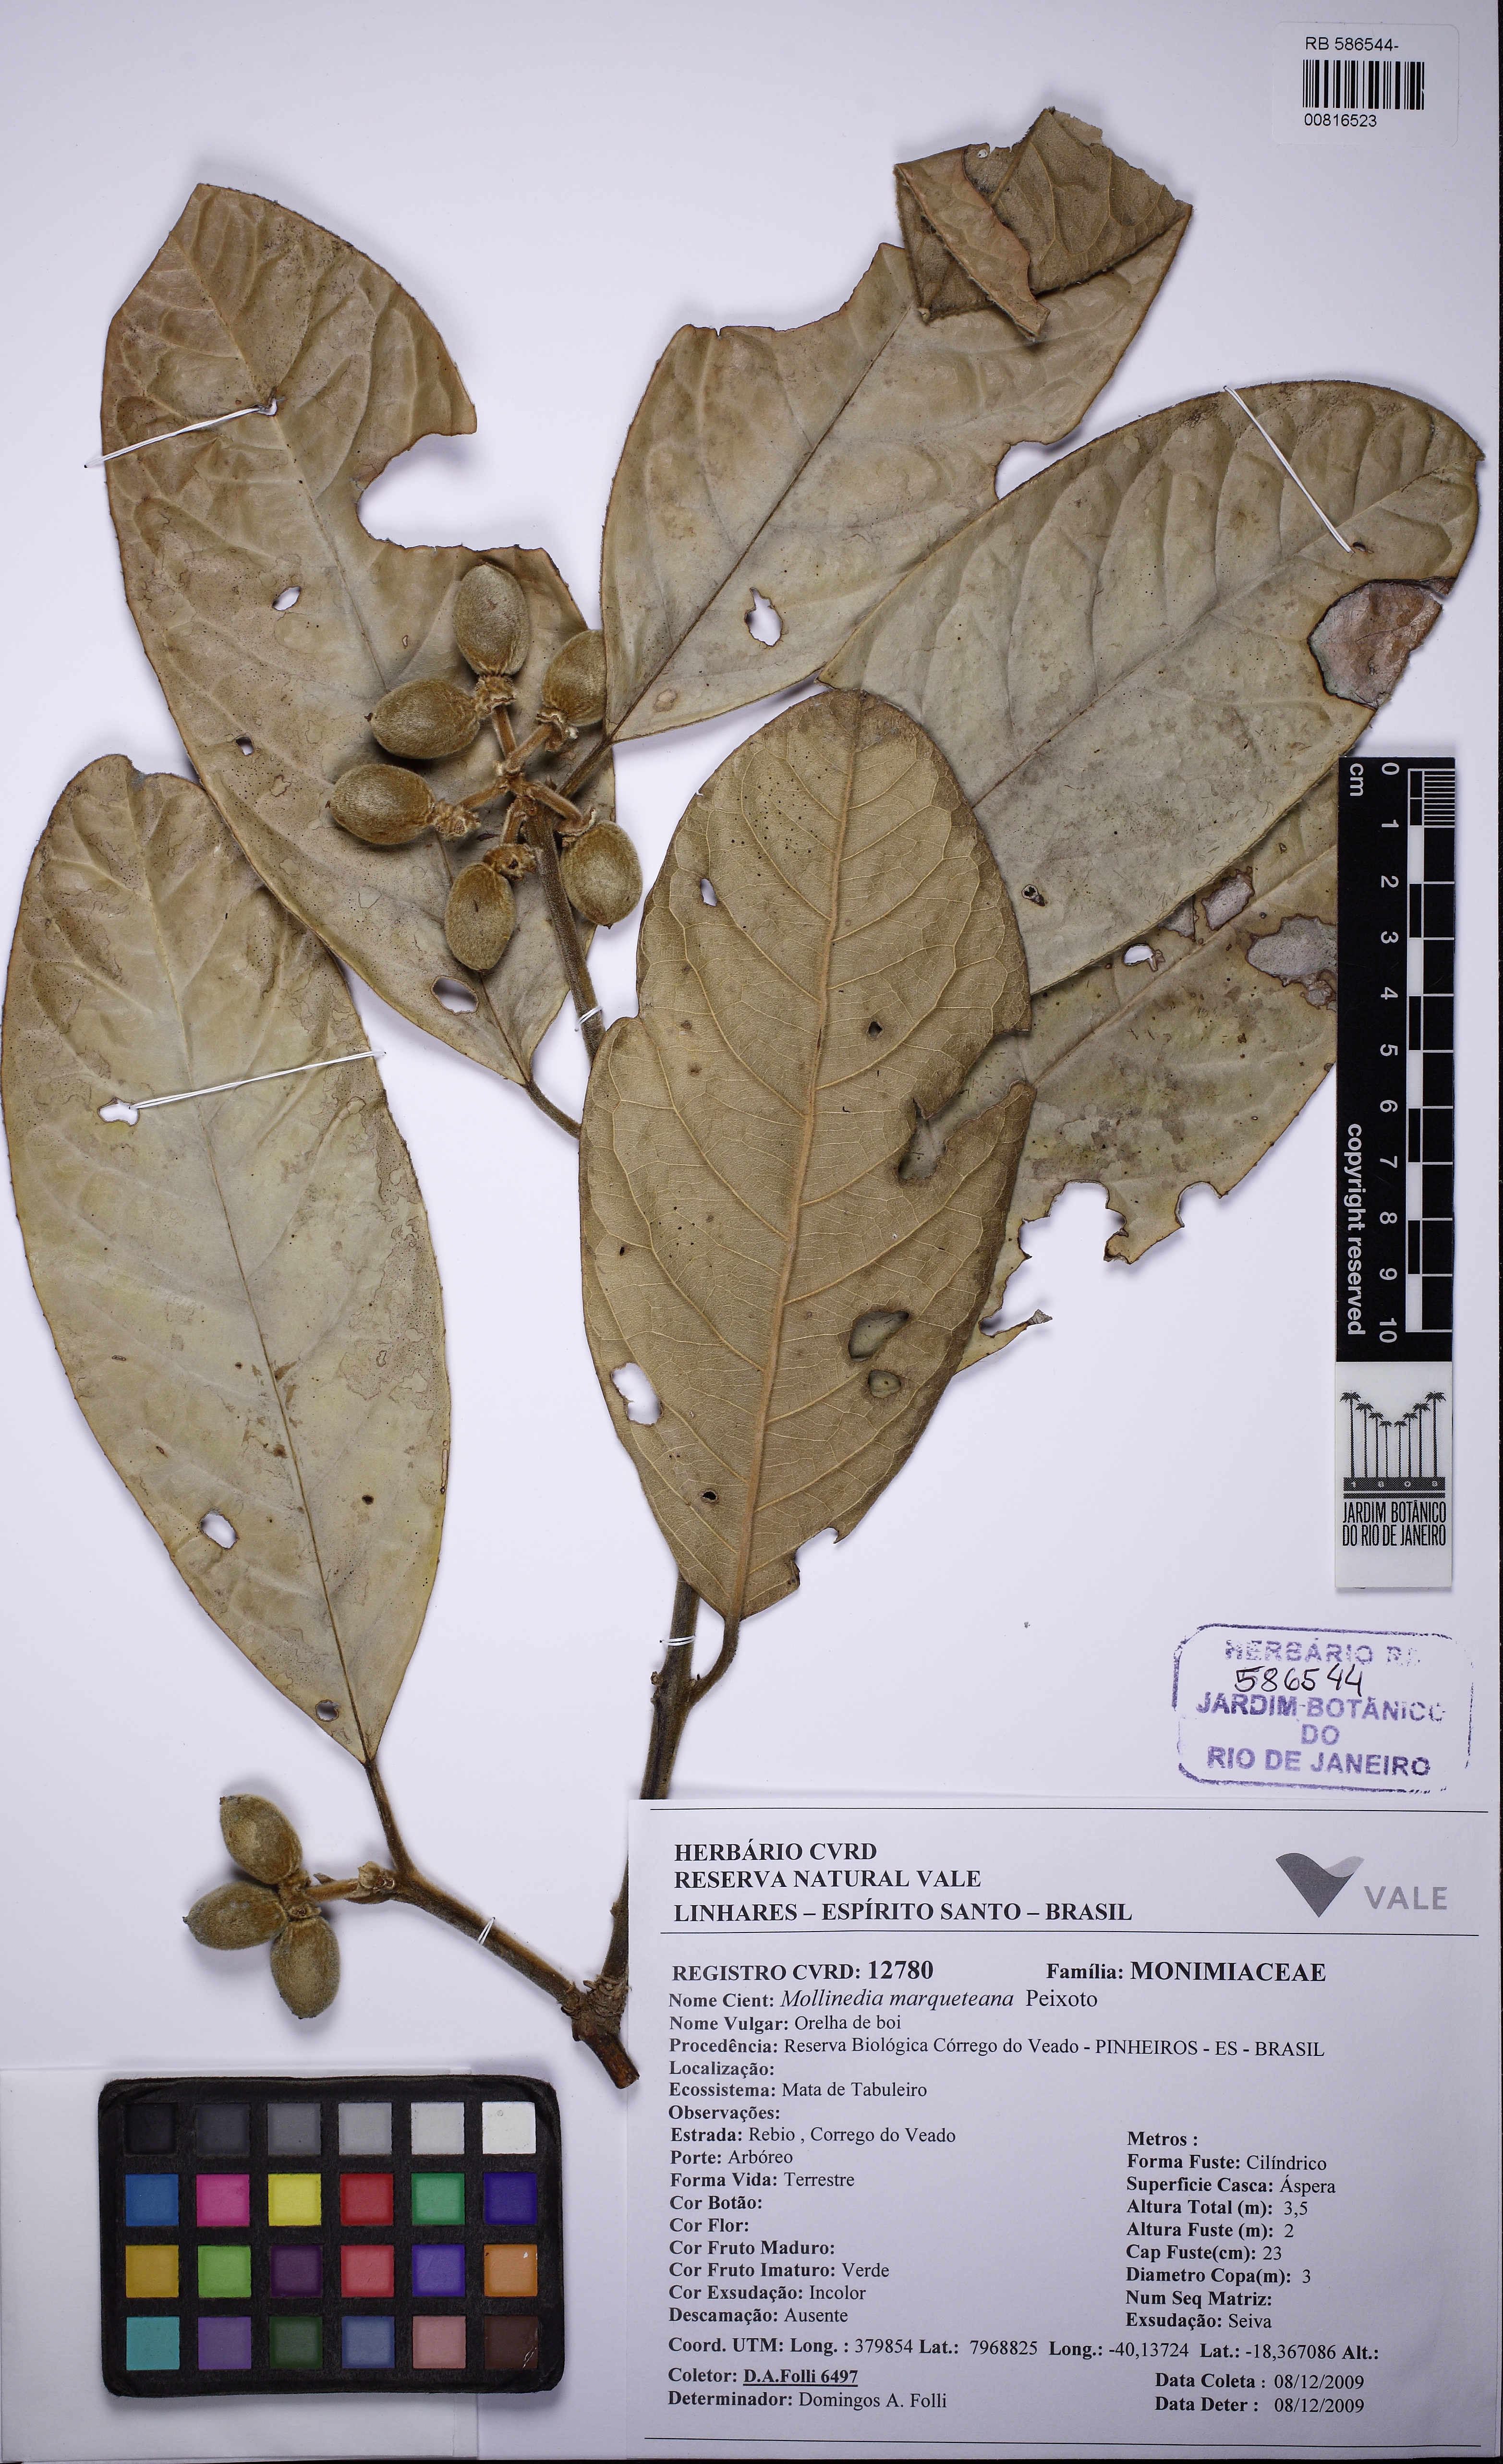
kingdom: Plantae
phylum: Tracheophyta
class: Magnoliopsida
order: Laurales
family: Monimiaceae
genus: Mollinedia
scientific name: Mollinedia marqueteana
